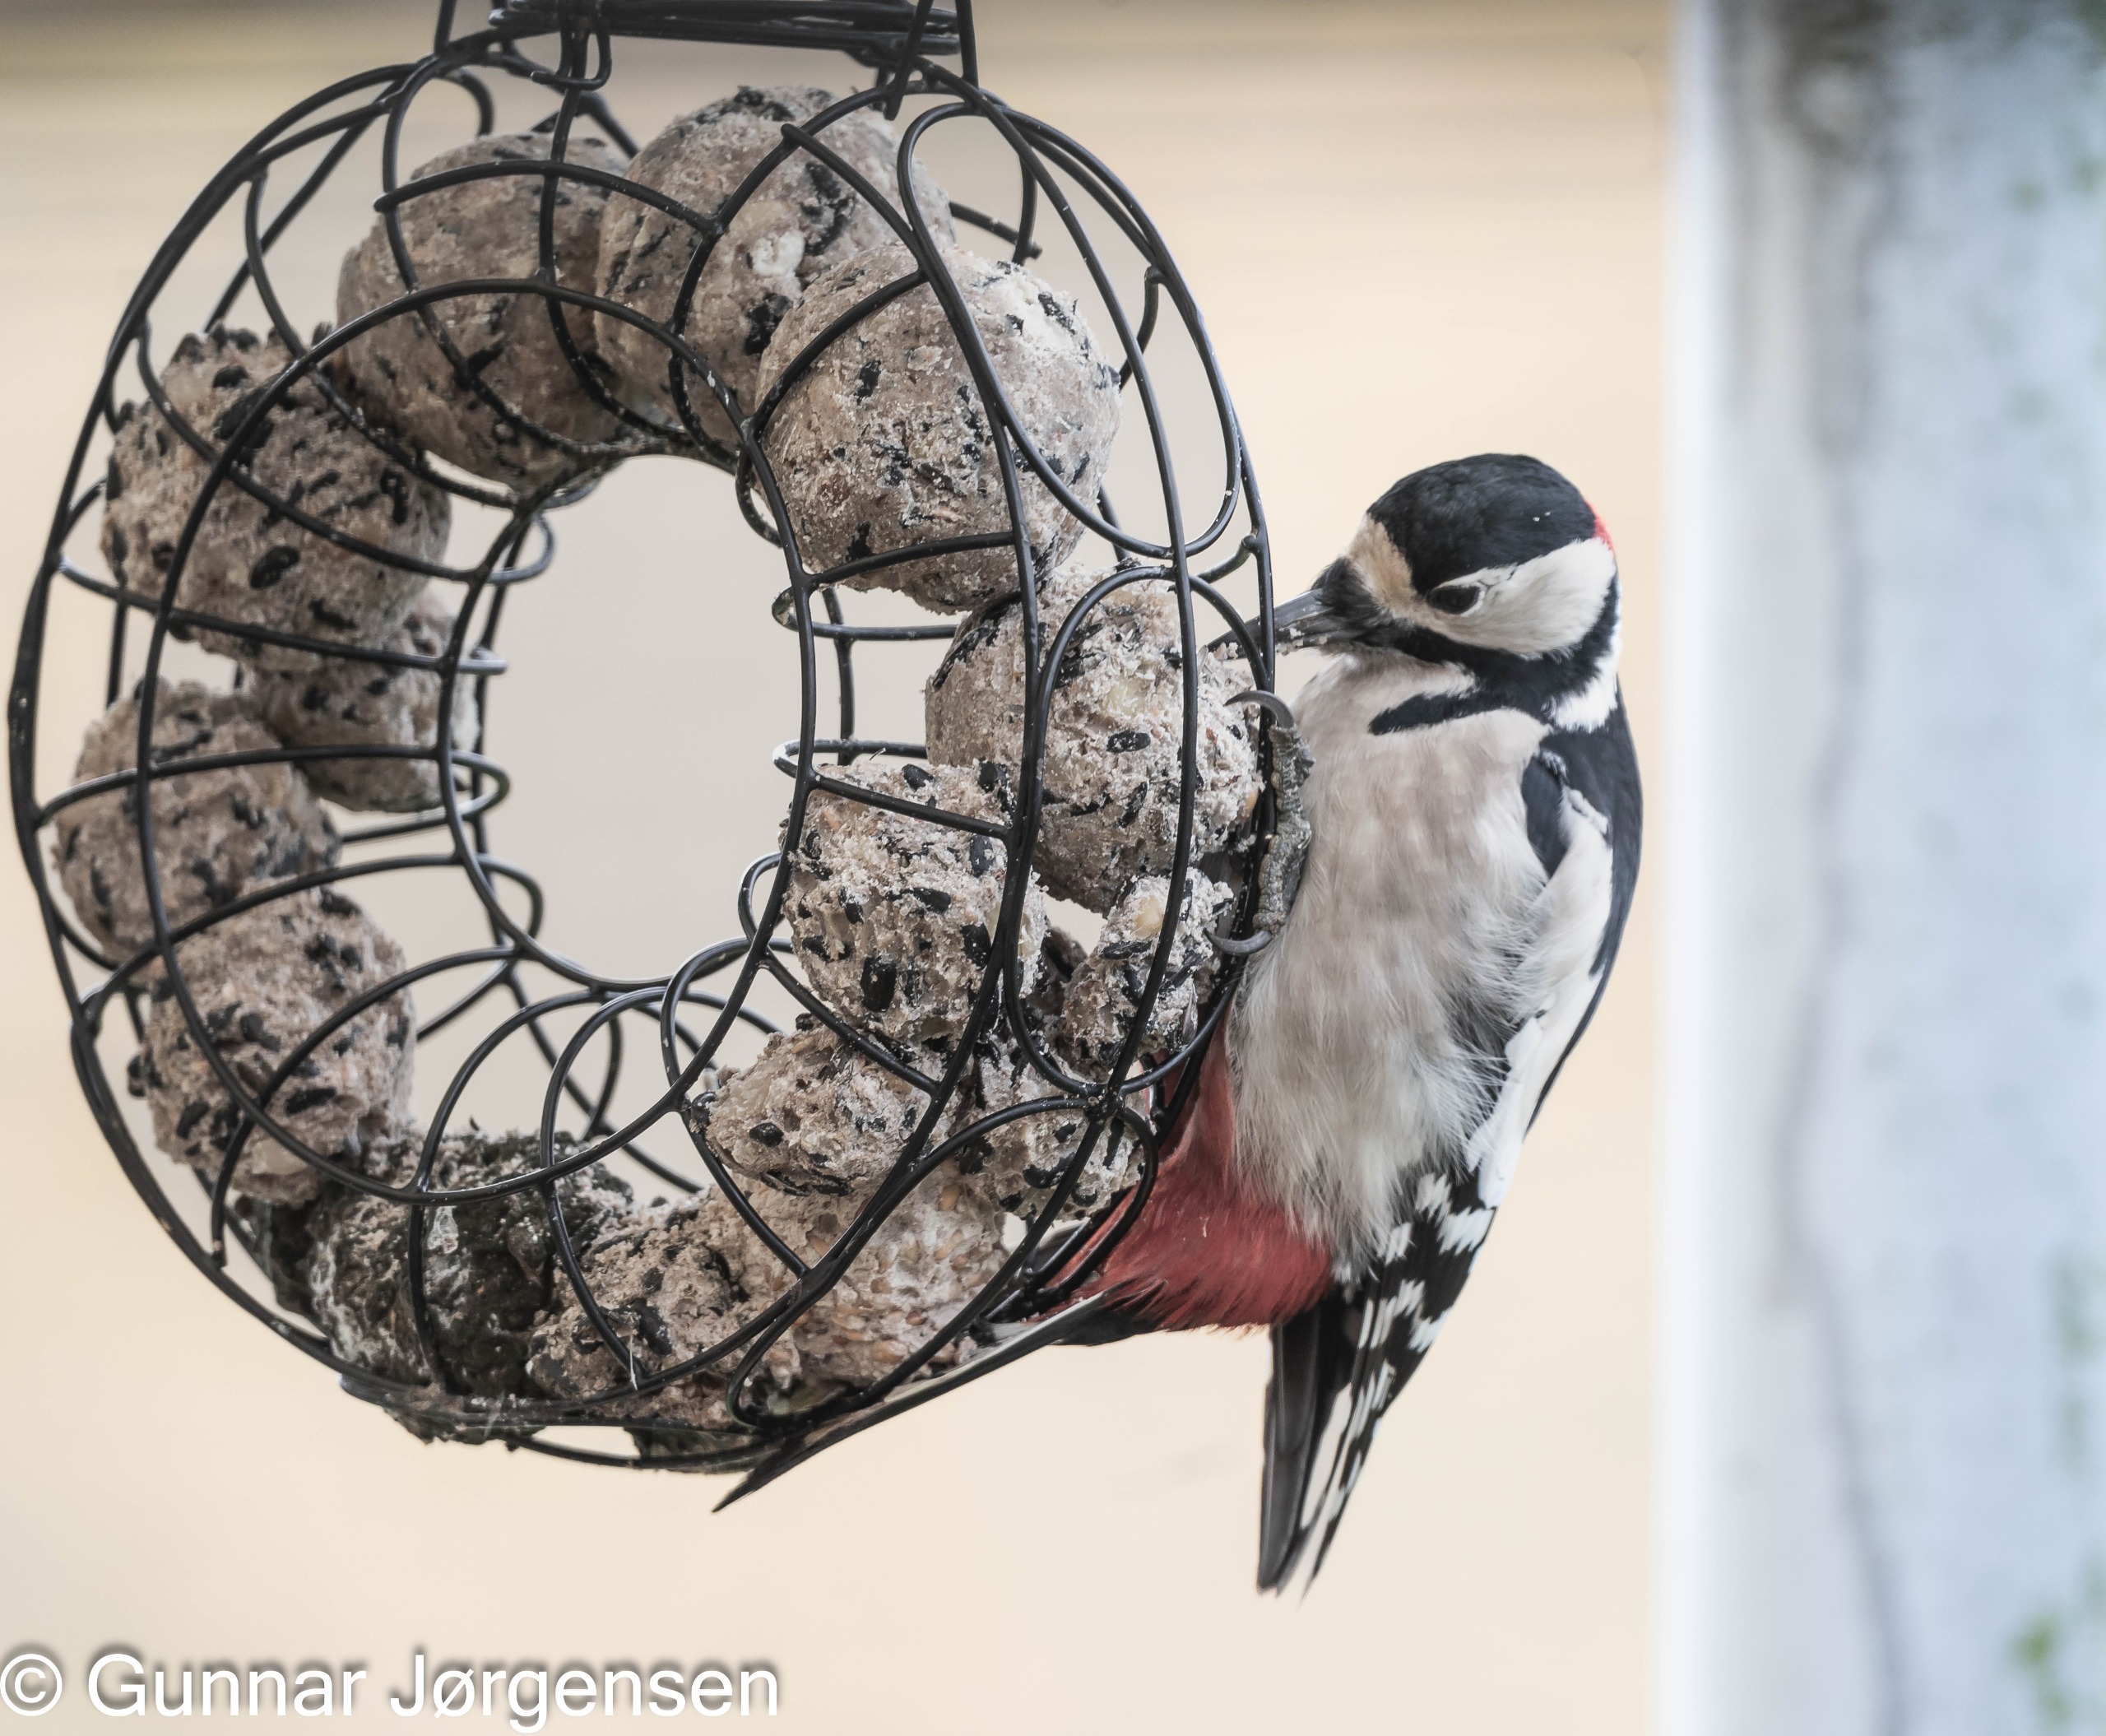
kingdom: Animalia
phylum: Chordata
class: Aves
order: Piciformes
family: Picidae
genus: Dendrocopos
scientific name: Dendrocopos major
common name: Stor flagspætte
